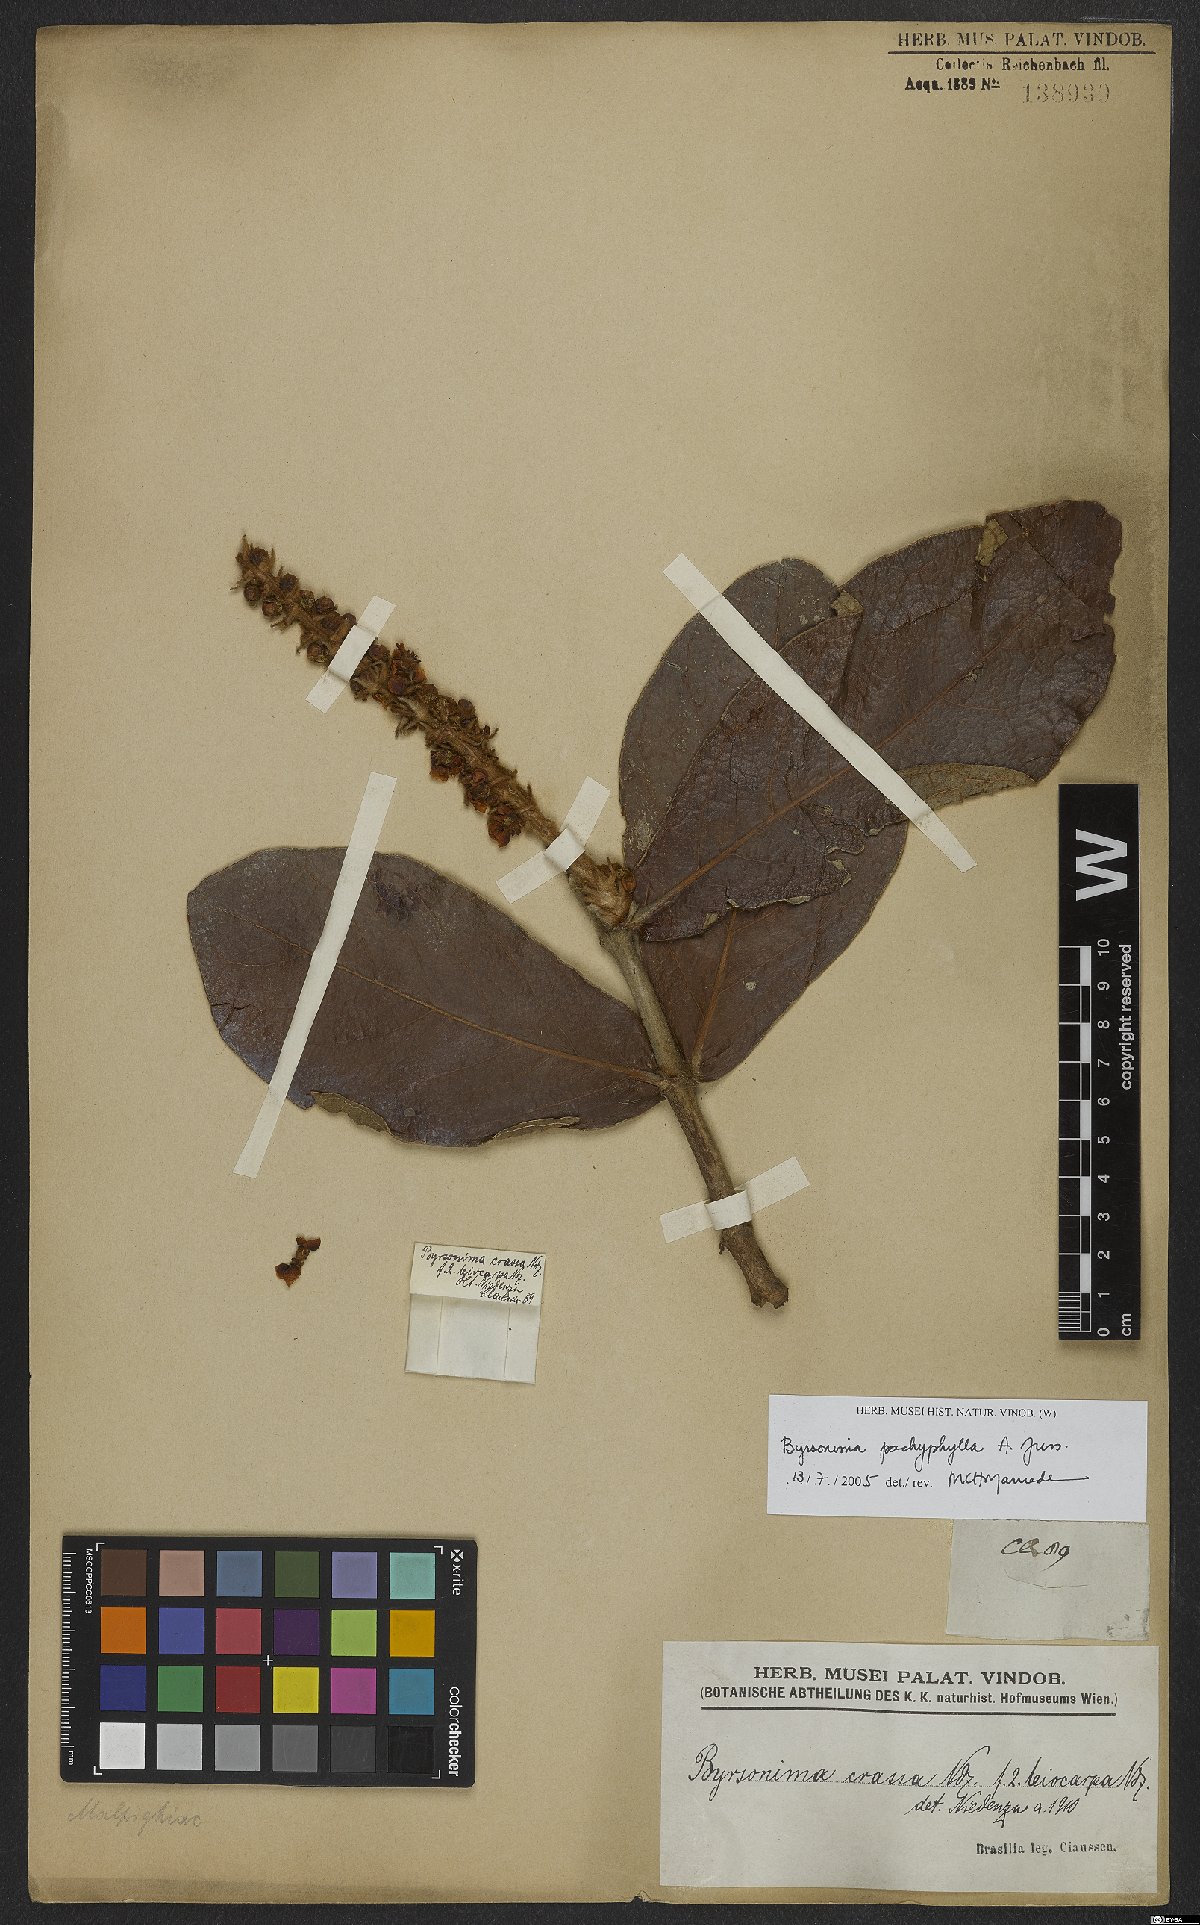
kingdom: Plantae
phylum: Tracheophyta
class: Magnoliopsida
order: Malpighiales
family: Malpighiaceae
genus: Byrsonima
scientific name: Byrsonima pachyphylla
